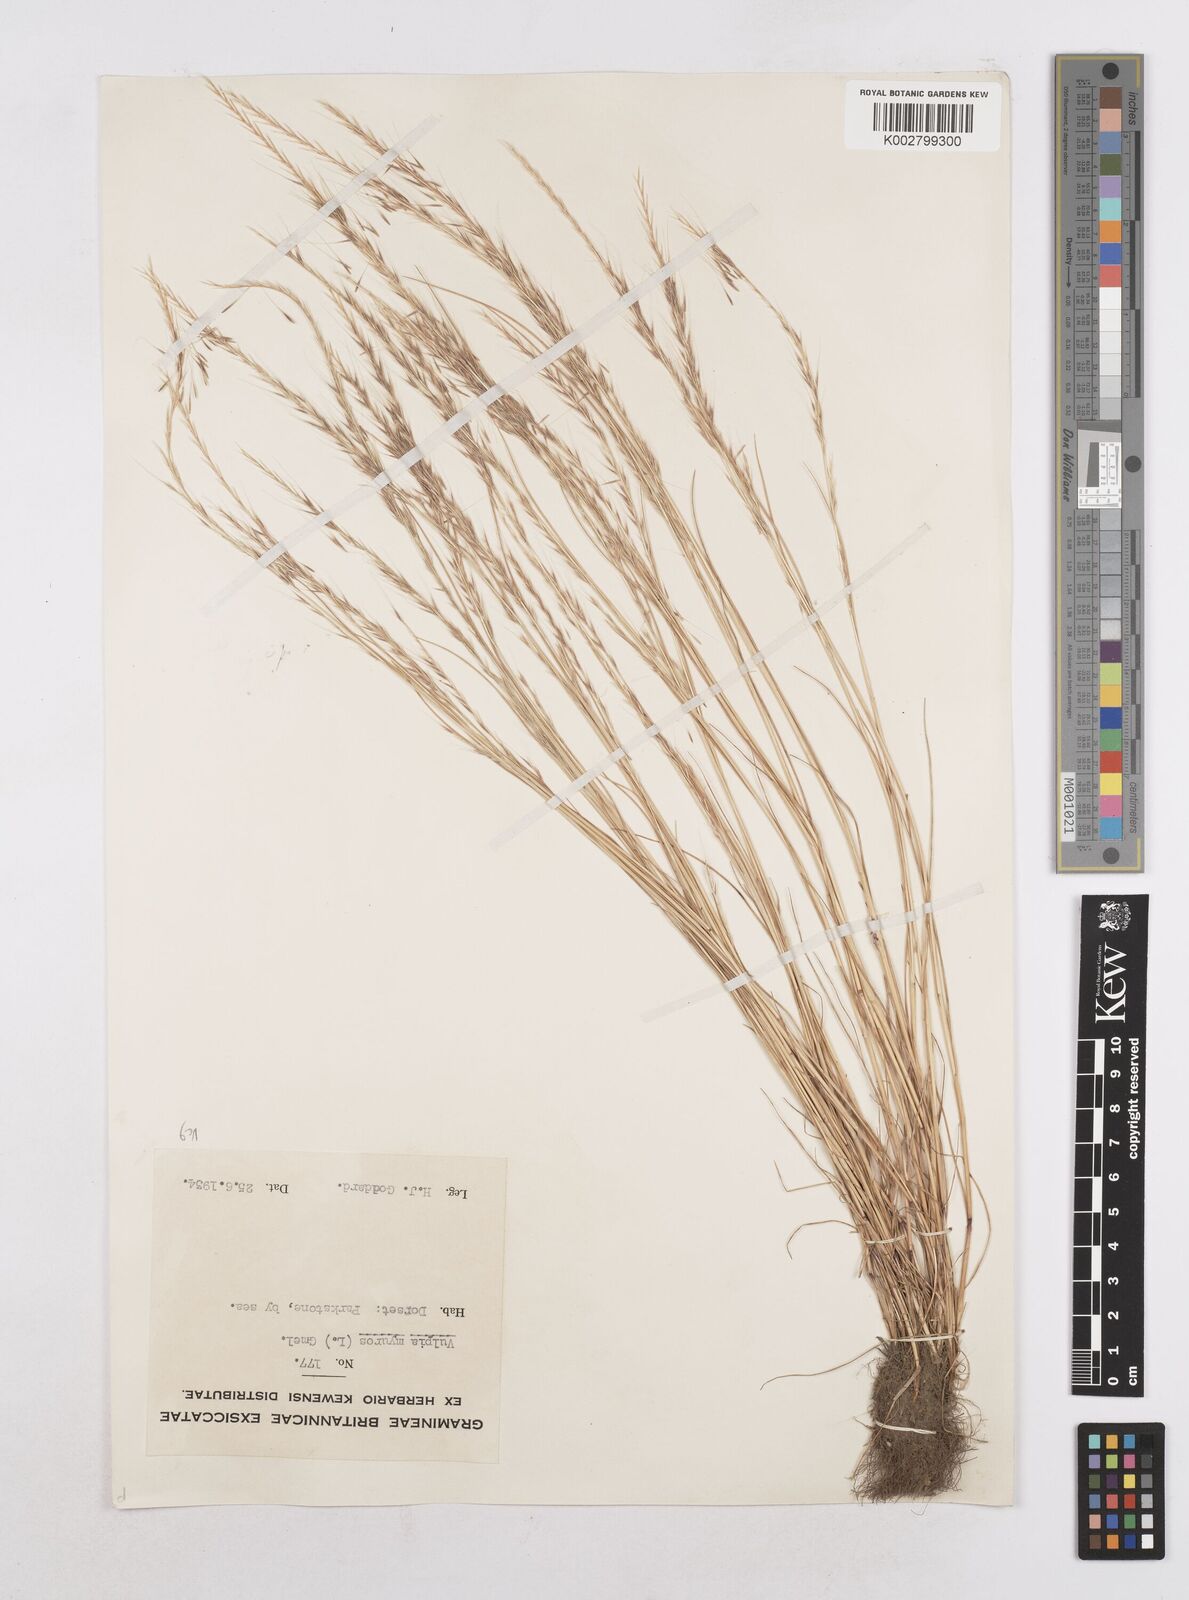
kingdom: Plantae
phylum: Tracheophyta
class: Liliopsida
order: Poales
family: Poaceae
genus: Festuca
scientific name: Festuca myuros
